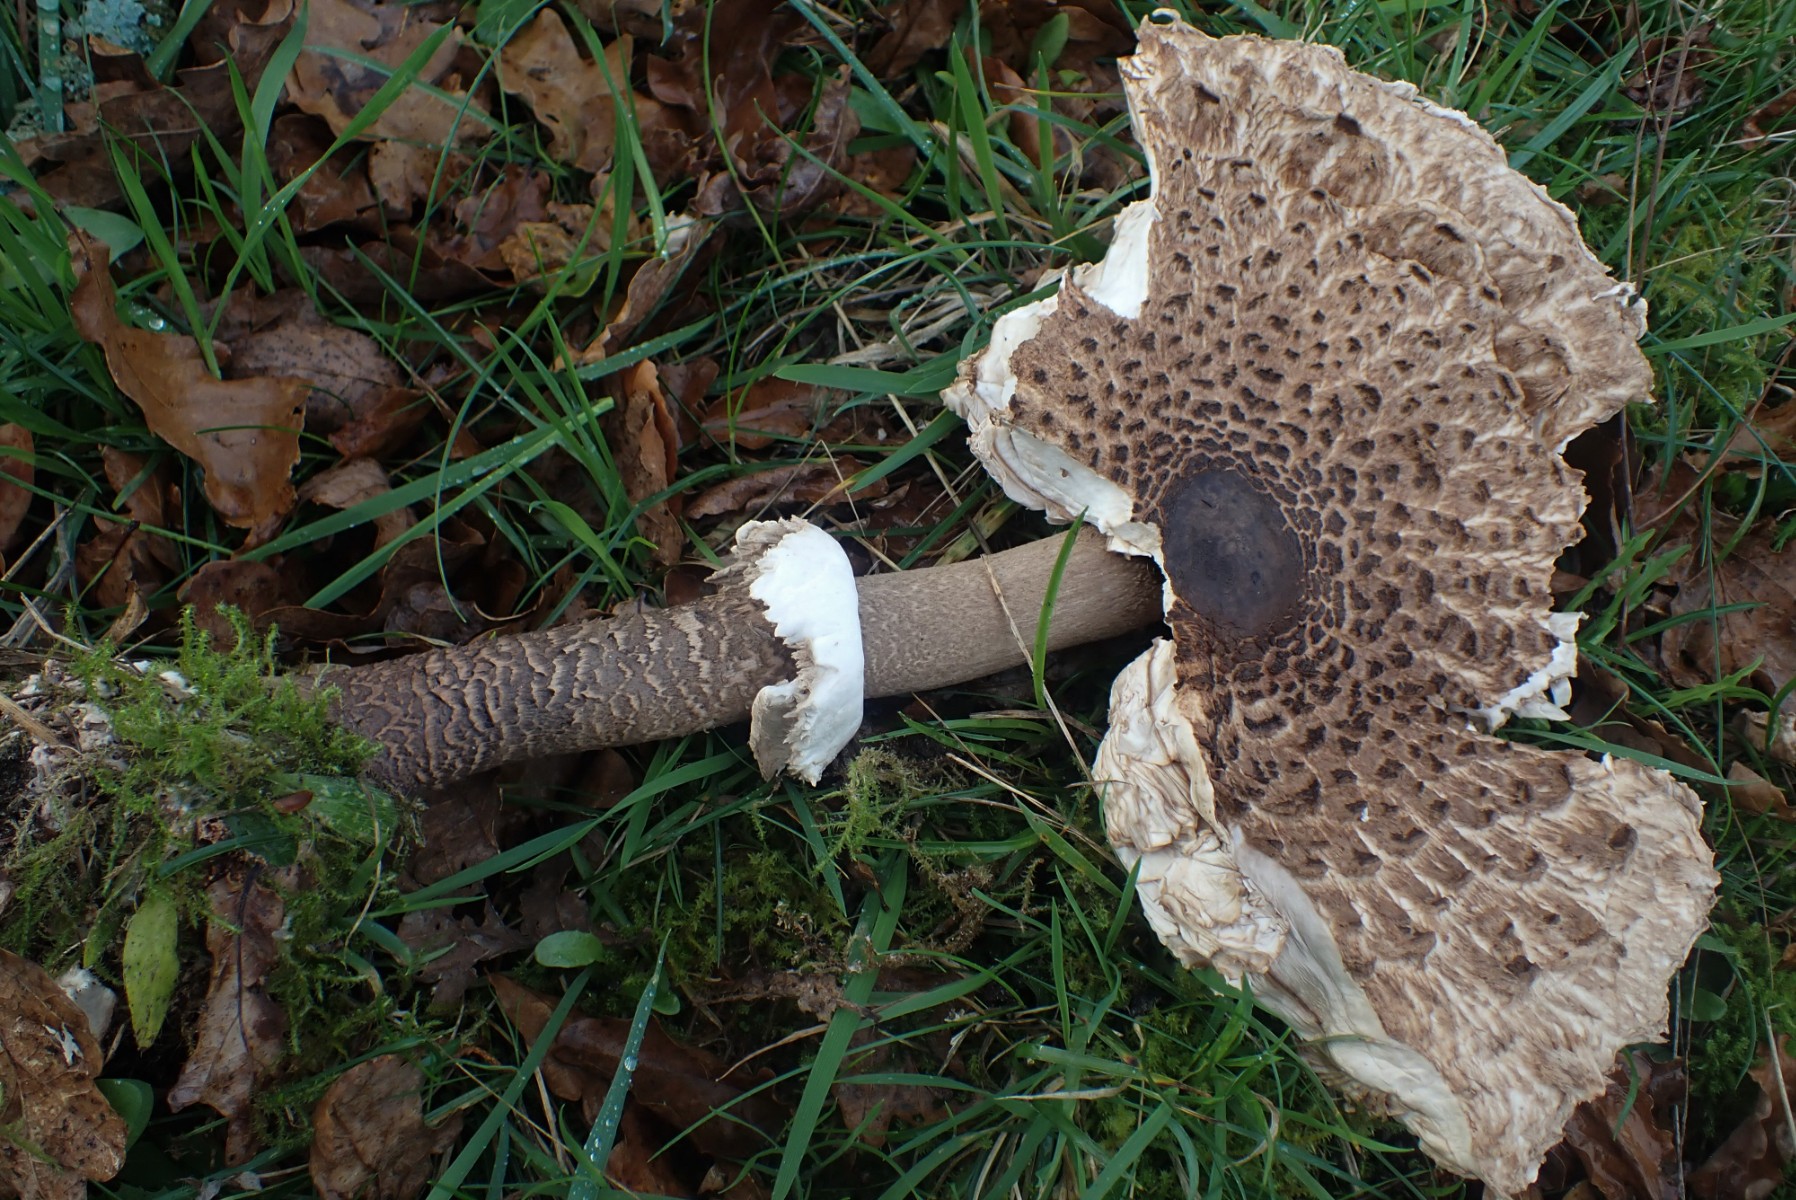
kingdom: Fungi
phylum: Basidiomycota
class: Agaricomycetes
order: Agaricales
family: Agaricaceae
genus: Macrolepiota
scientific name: Macrolepiota procera
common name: stor kæmpeparasolhat
